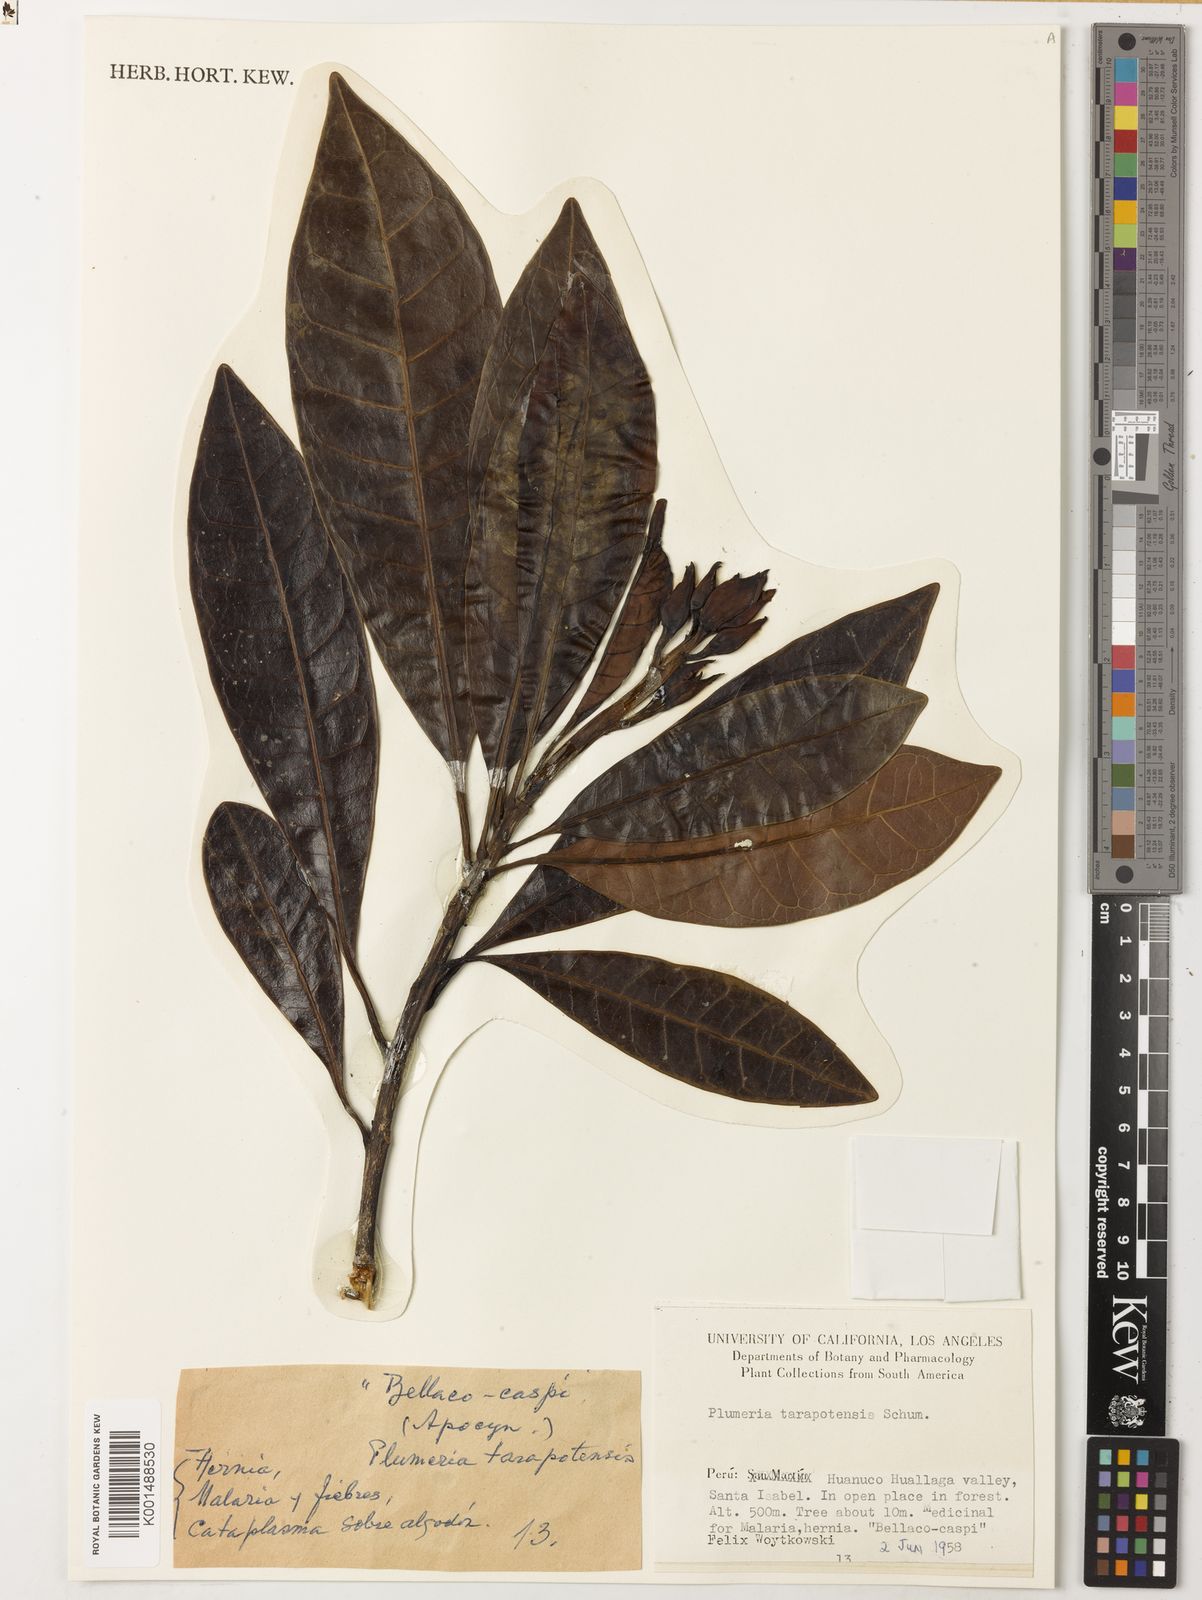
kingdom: Plantae
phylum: Tracheophyta
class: Magnoliopsida
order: Gentianales
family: Apocynaceae
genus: Himatanthus
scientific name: Himatanthus tarapotensis
